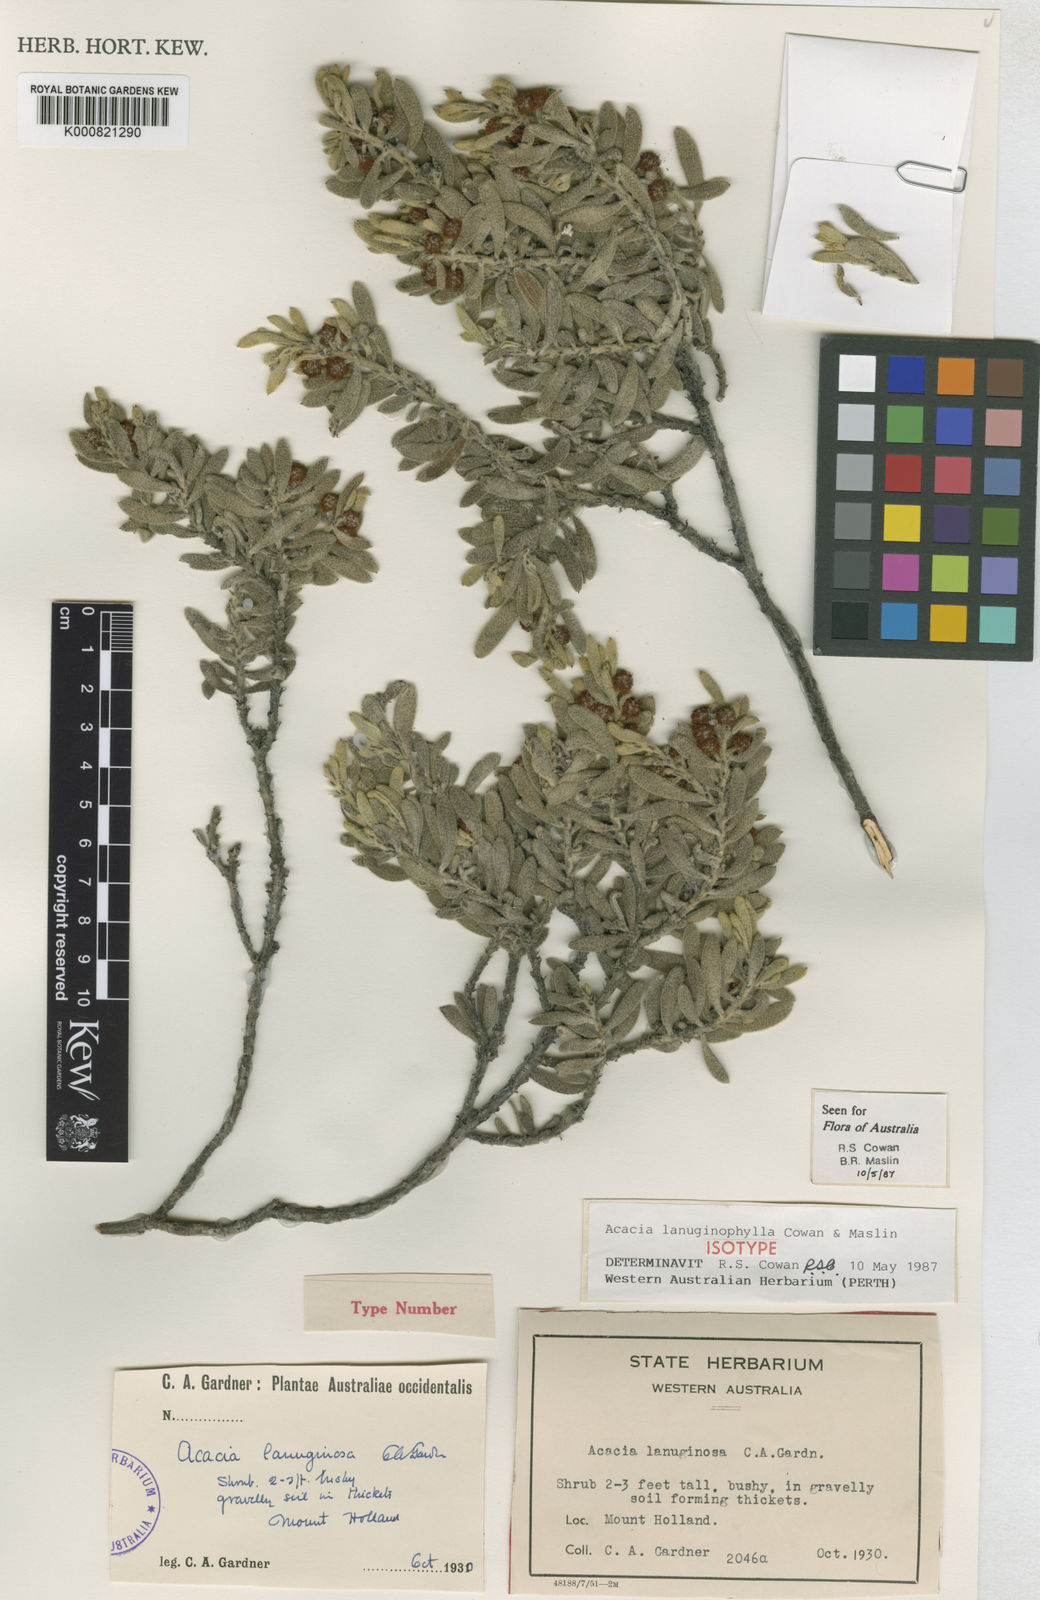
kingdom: Plantae
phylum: Tracheophyta
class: Magnoliopsida
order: Fabales
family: Fabaceae
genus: Acacia
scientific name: Acacia lanuginophylla
